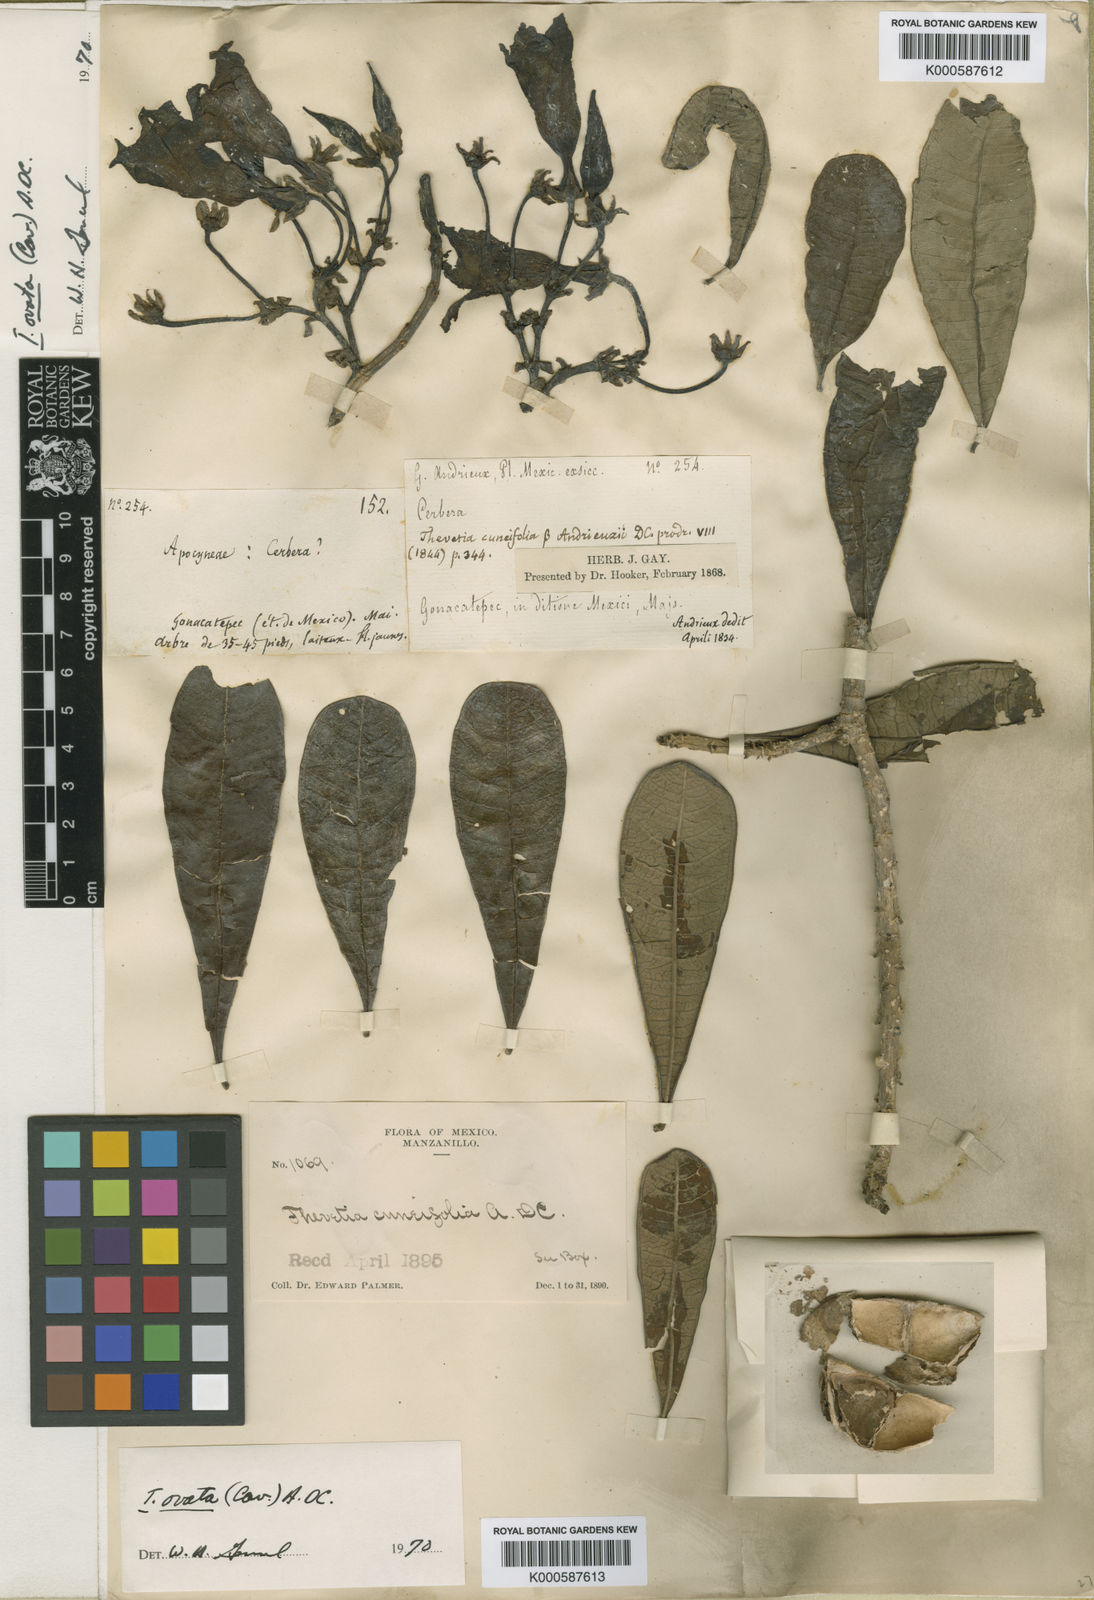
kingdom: Plantae
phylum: Tracheophyta
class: Magnoliopsida
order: Gentianales
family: Apocynaceae
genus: Cascabela
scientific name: Cascabela ovata
